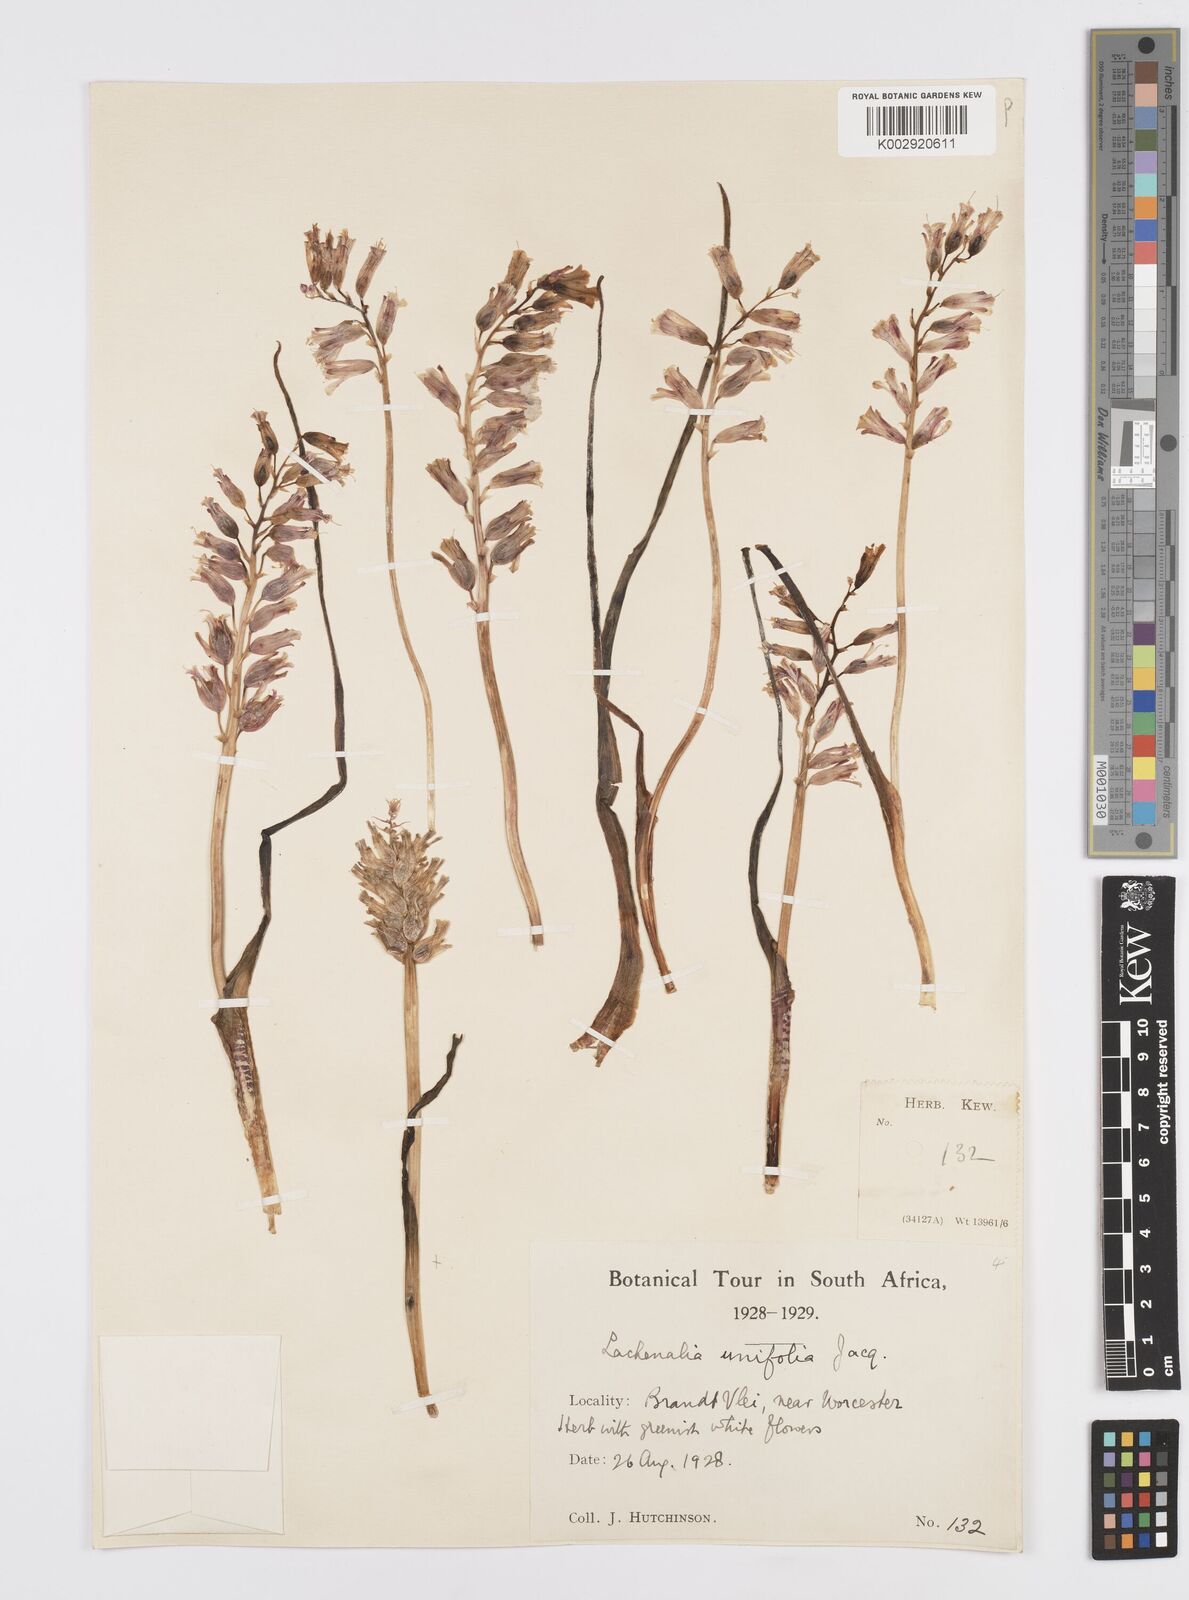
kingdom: Plantae
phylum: Tracheophyta
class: Liliopsida
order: Asparagales
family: Asparagaceae
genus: Lachenalia
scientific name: Lachenalia unifolia
